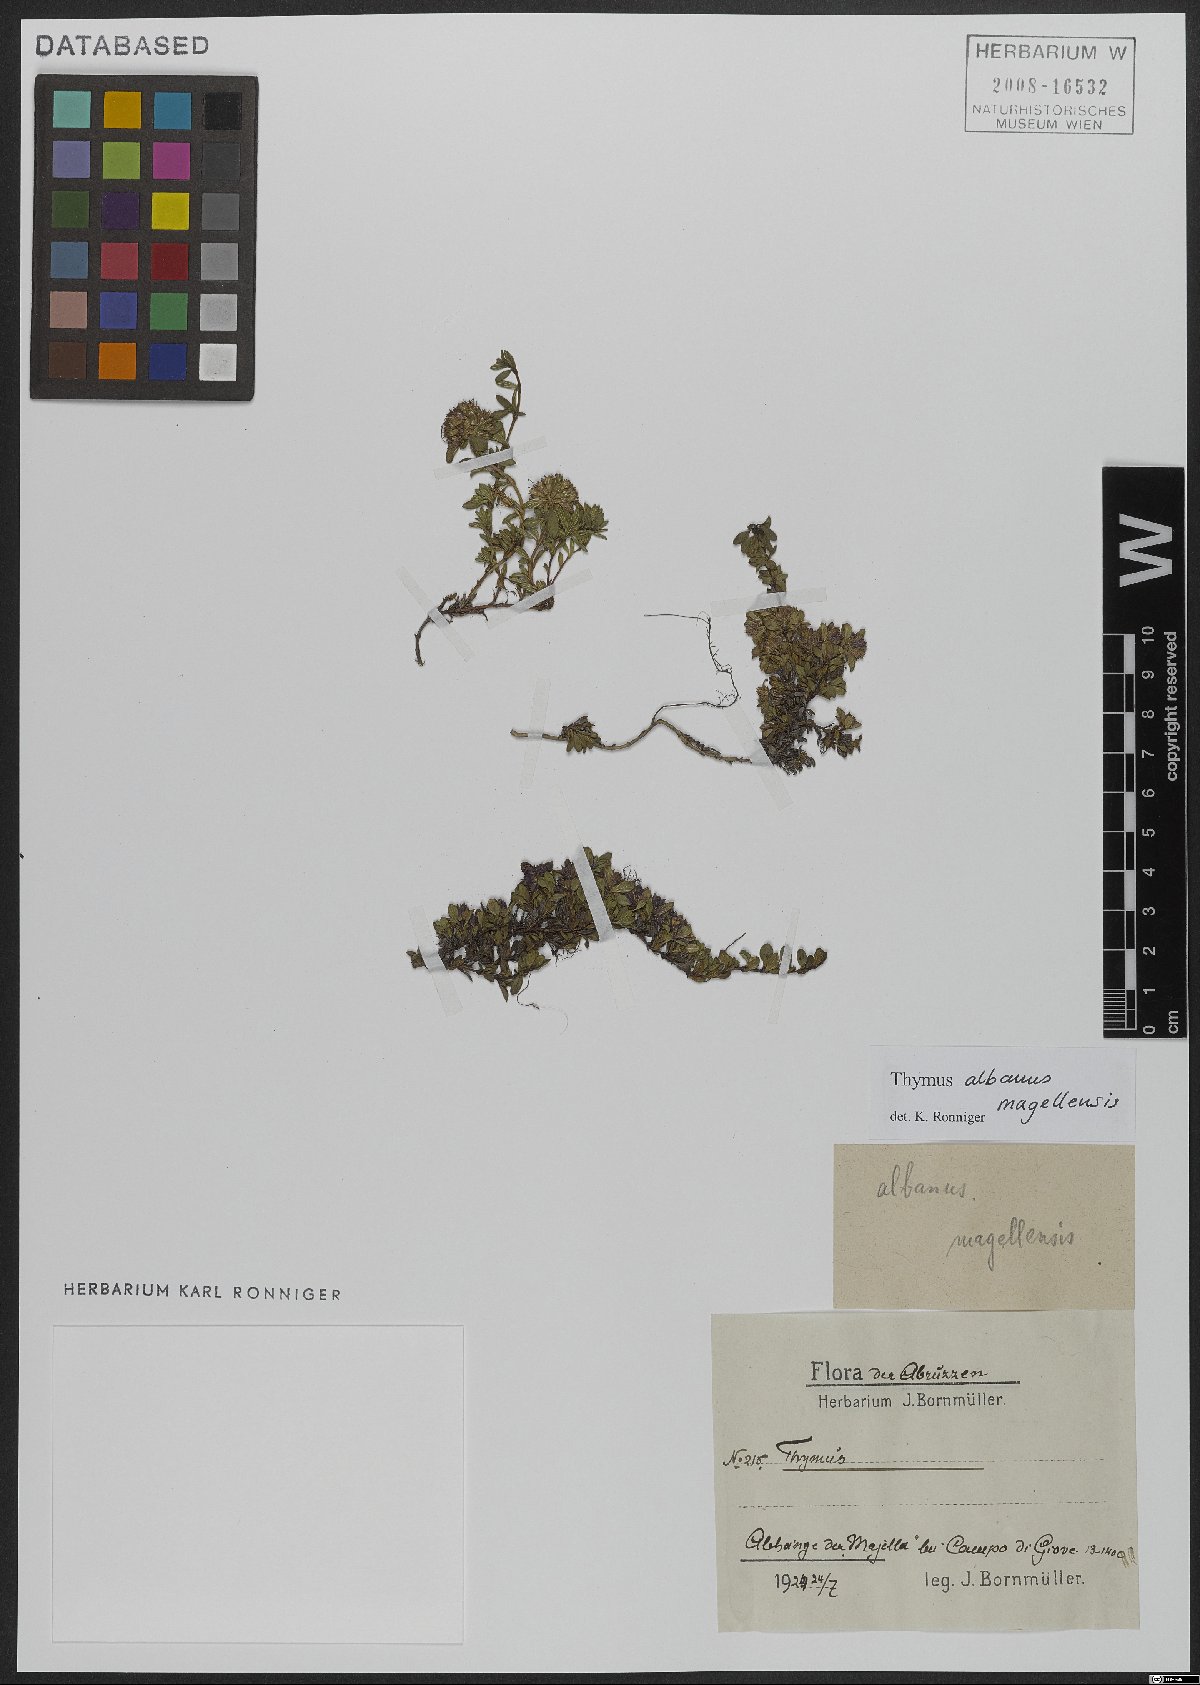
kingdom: Plantae
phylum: Tracheophyta
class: Magnoliopsida
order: Lamiales
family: Lamiaceae
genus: Thymus
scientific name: Thymus praecox
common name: Wild thyme
